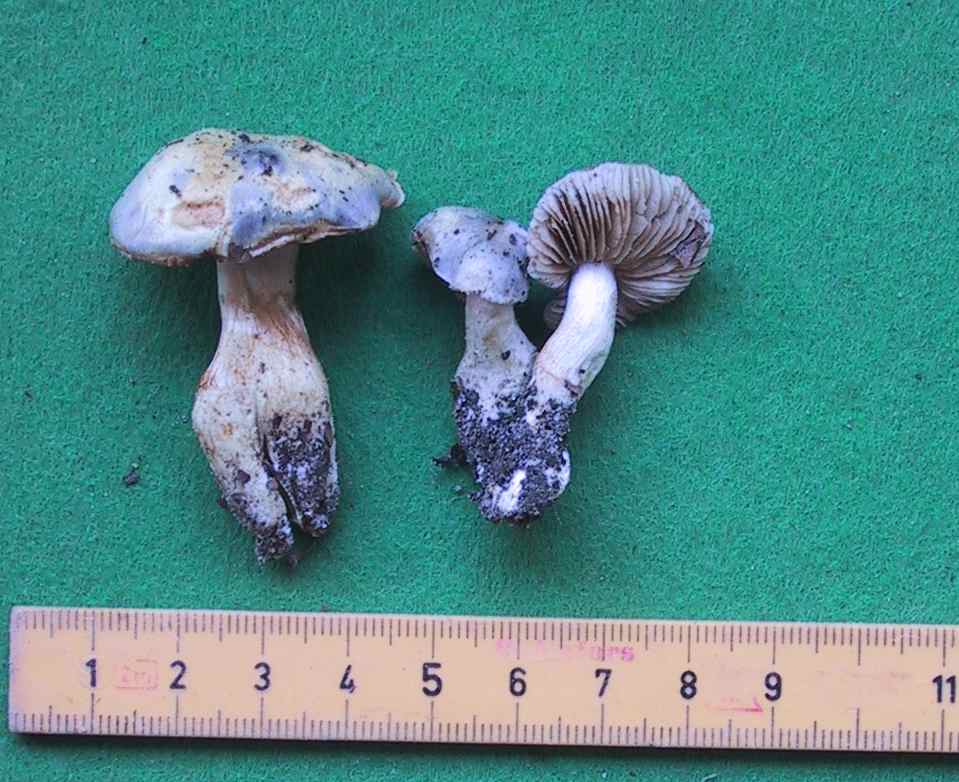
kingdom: Fungi
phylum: Basidiomycota
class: Agaricomycetes
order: Agaricales
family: Cortinariaceae
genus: Thaxterogaster
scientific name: Thaxterogaster croceocoeruleus
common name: blågullig slørhat
